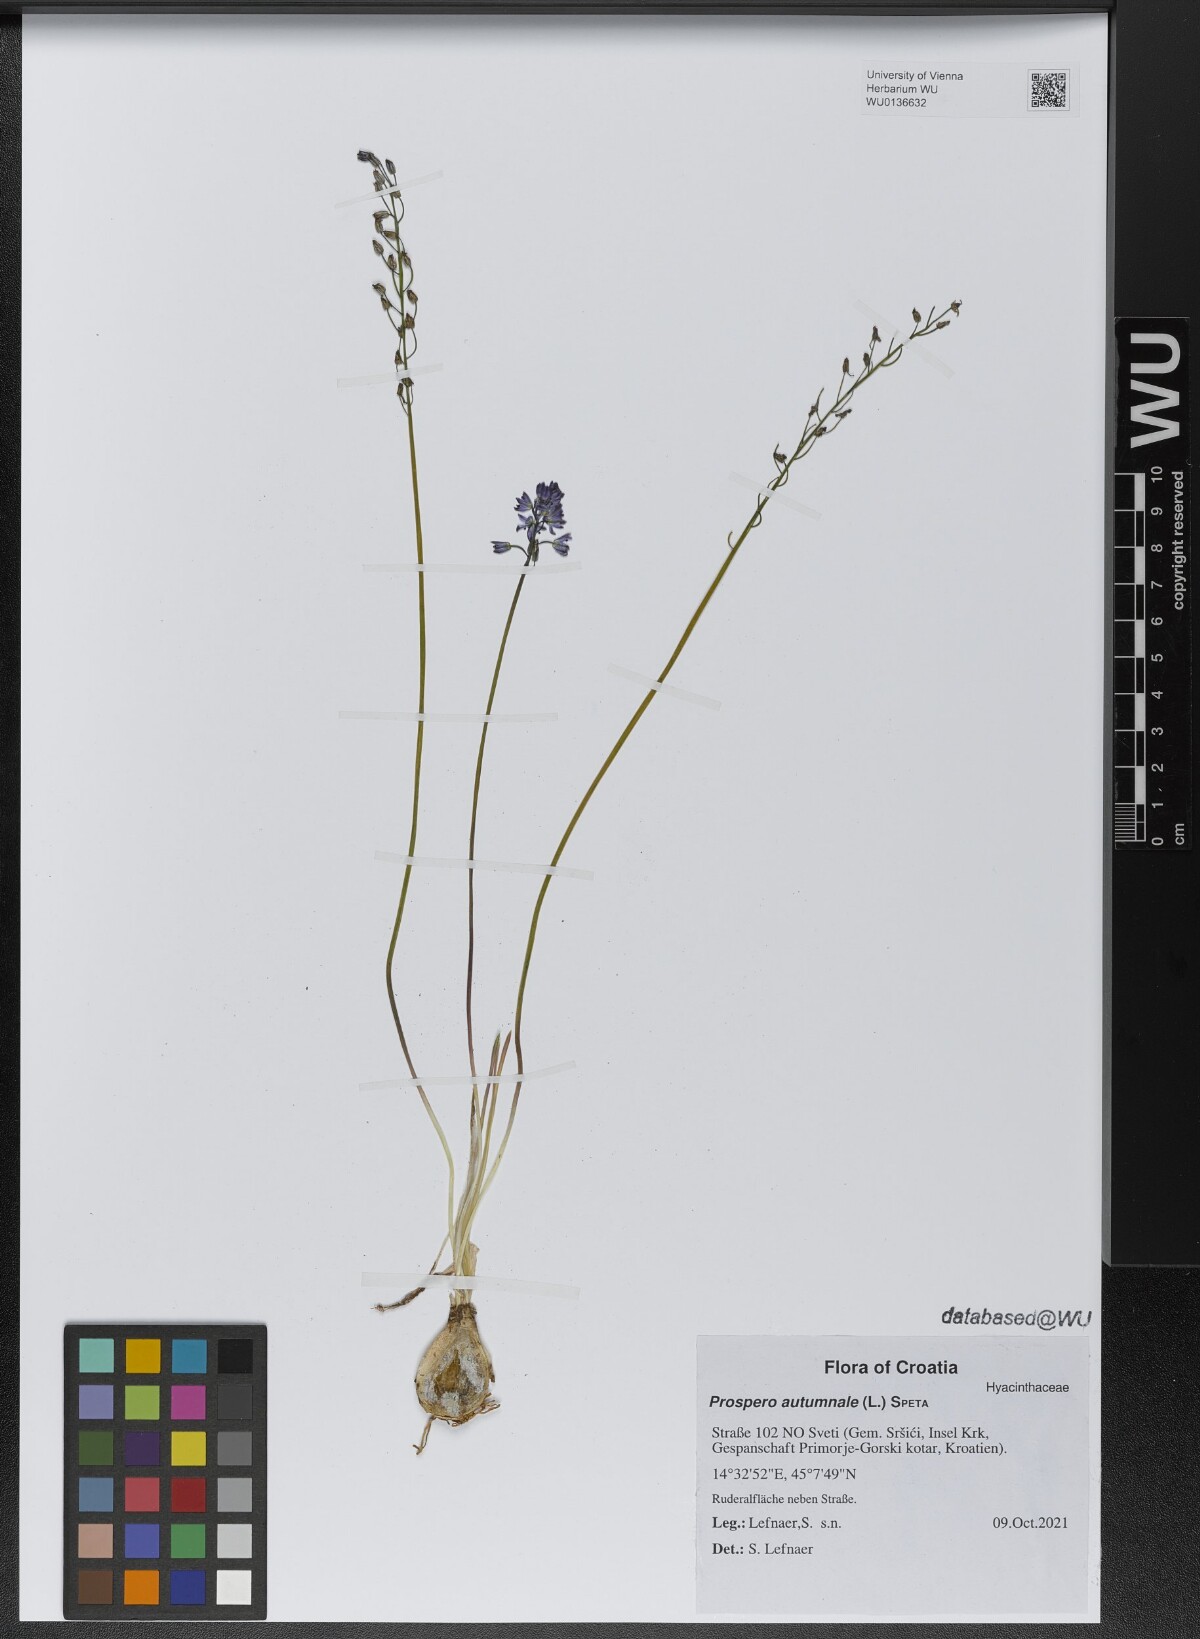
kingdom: Plantae
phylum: Tracheophyta
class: Liliopsida
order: Asparagales
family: Asparagaceae
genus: Prospero
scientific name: Prospero autumnale
